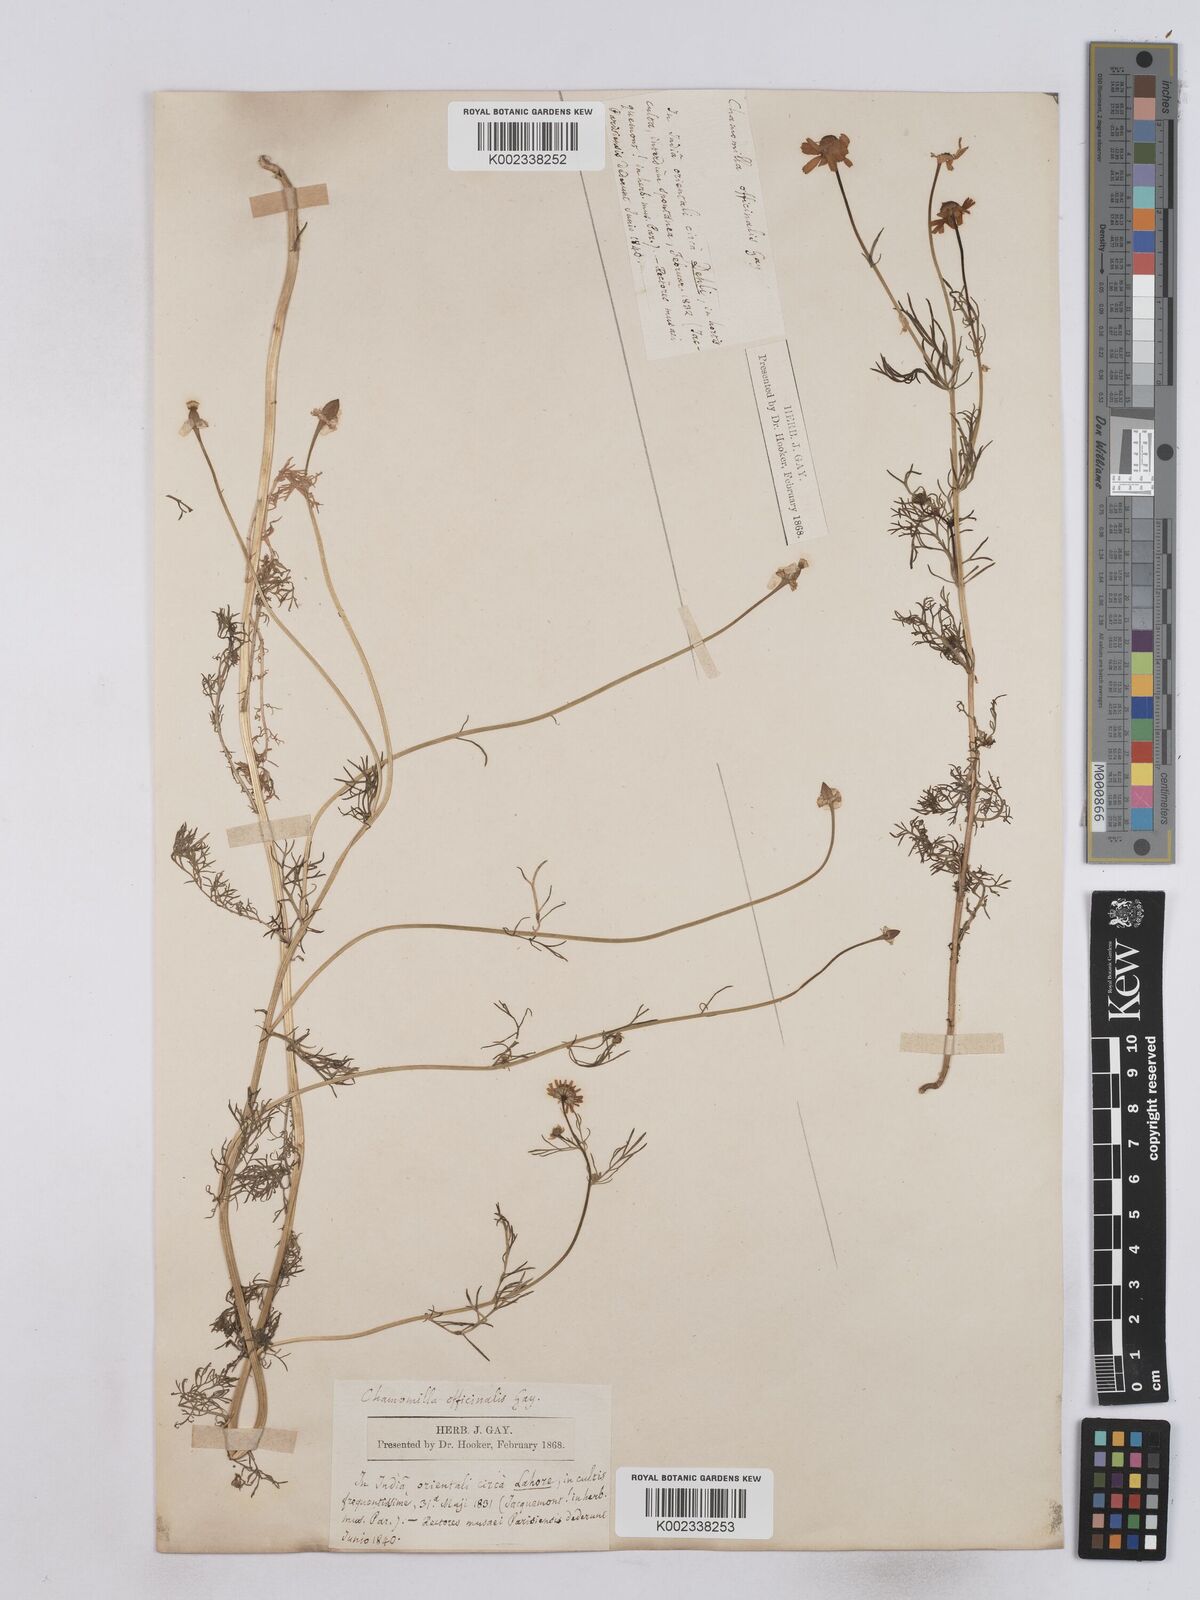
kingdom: Plantae
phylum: Tracheophyta
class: Magnoliopsida
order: Asterales
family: Asteraceae
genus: Matricaria
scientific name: Matricaria chamomilla
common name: Scented mayweed
